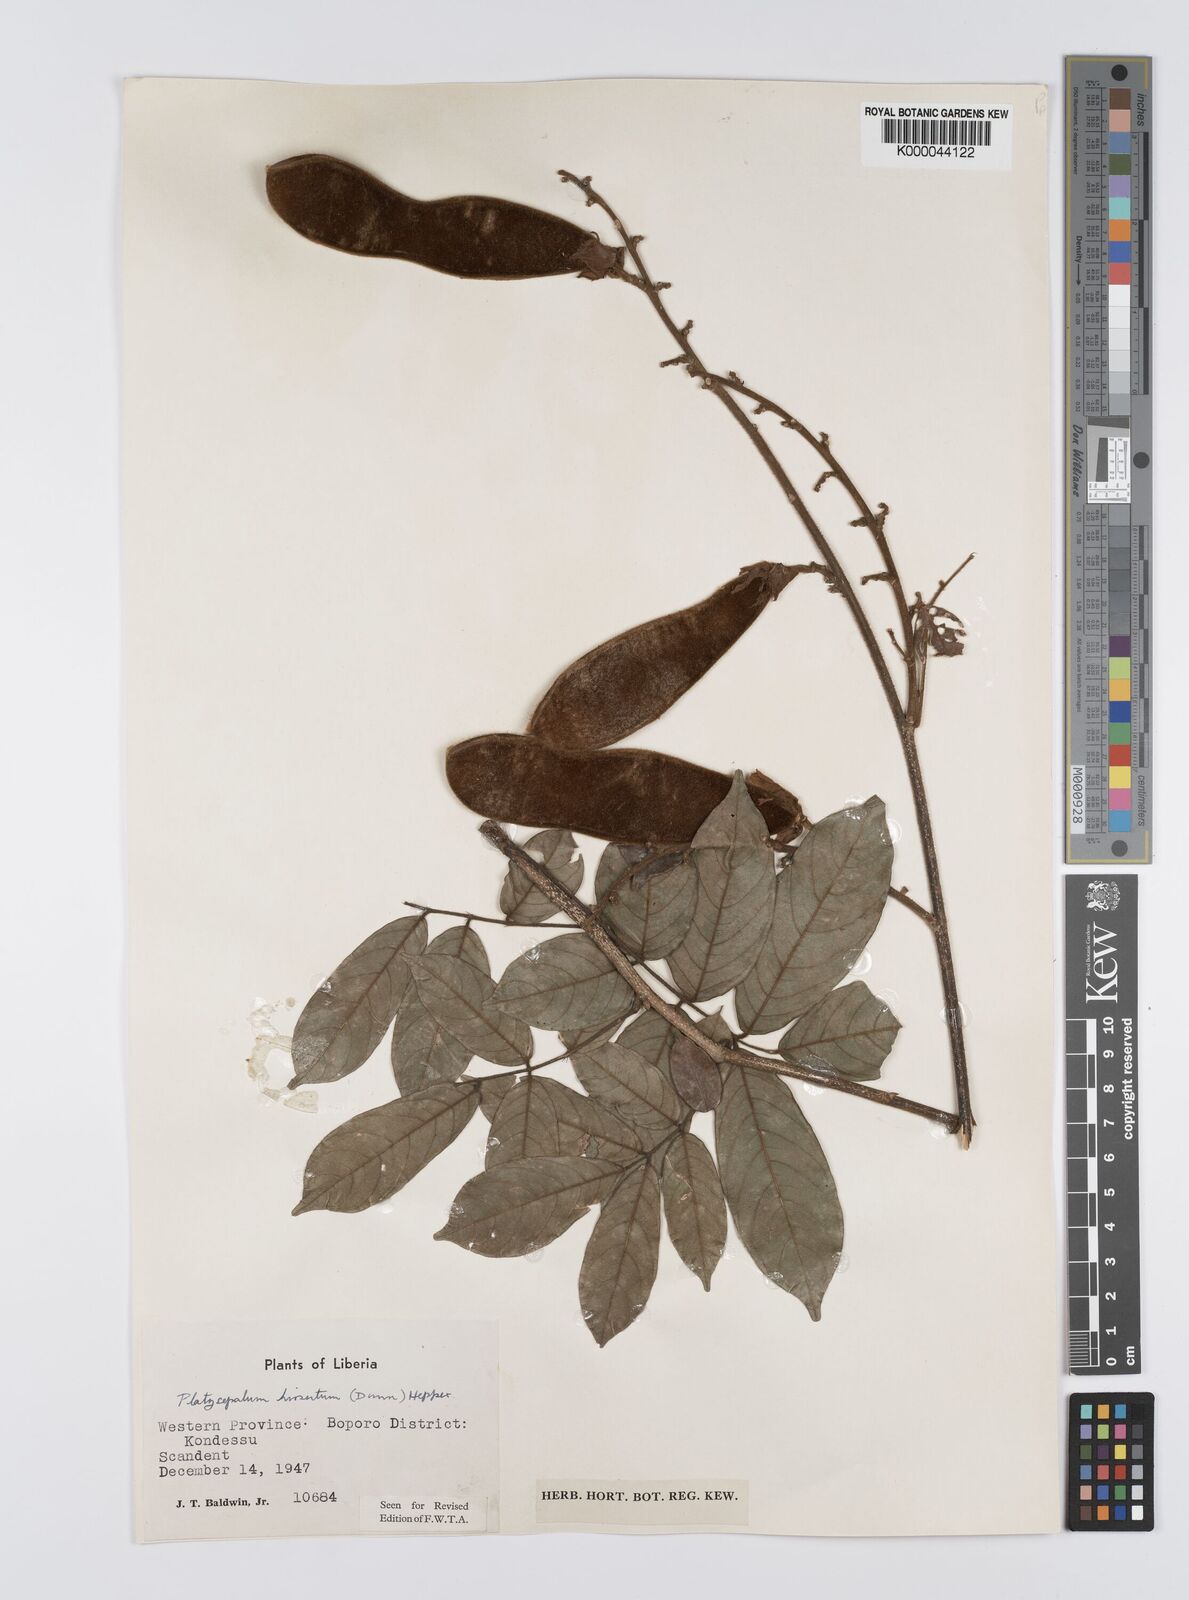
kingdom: Plantae
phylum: Tracheophyta
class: Magnoliopsida
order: Fabales
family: Fabaceae
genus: Platysepalum
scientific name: Platysepalum hirsutum
